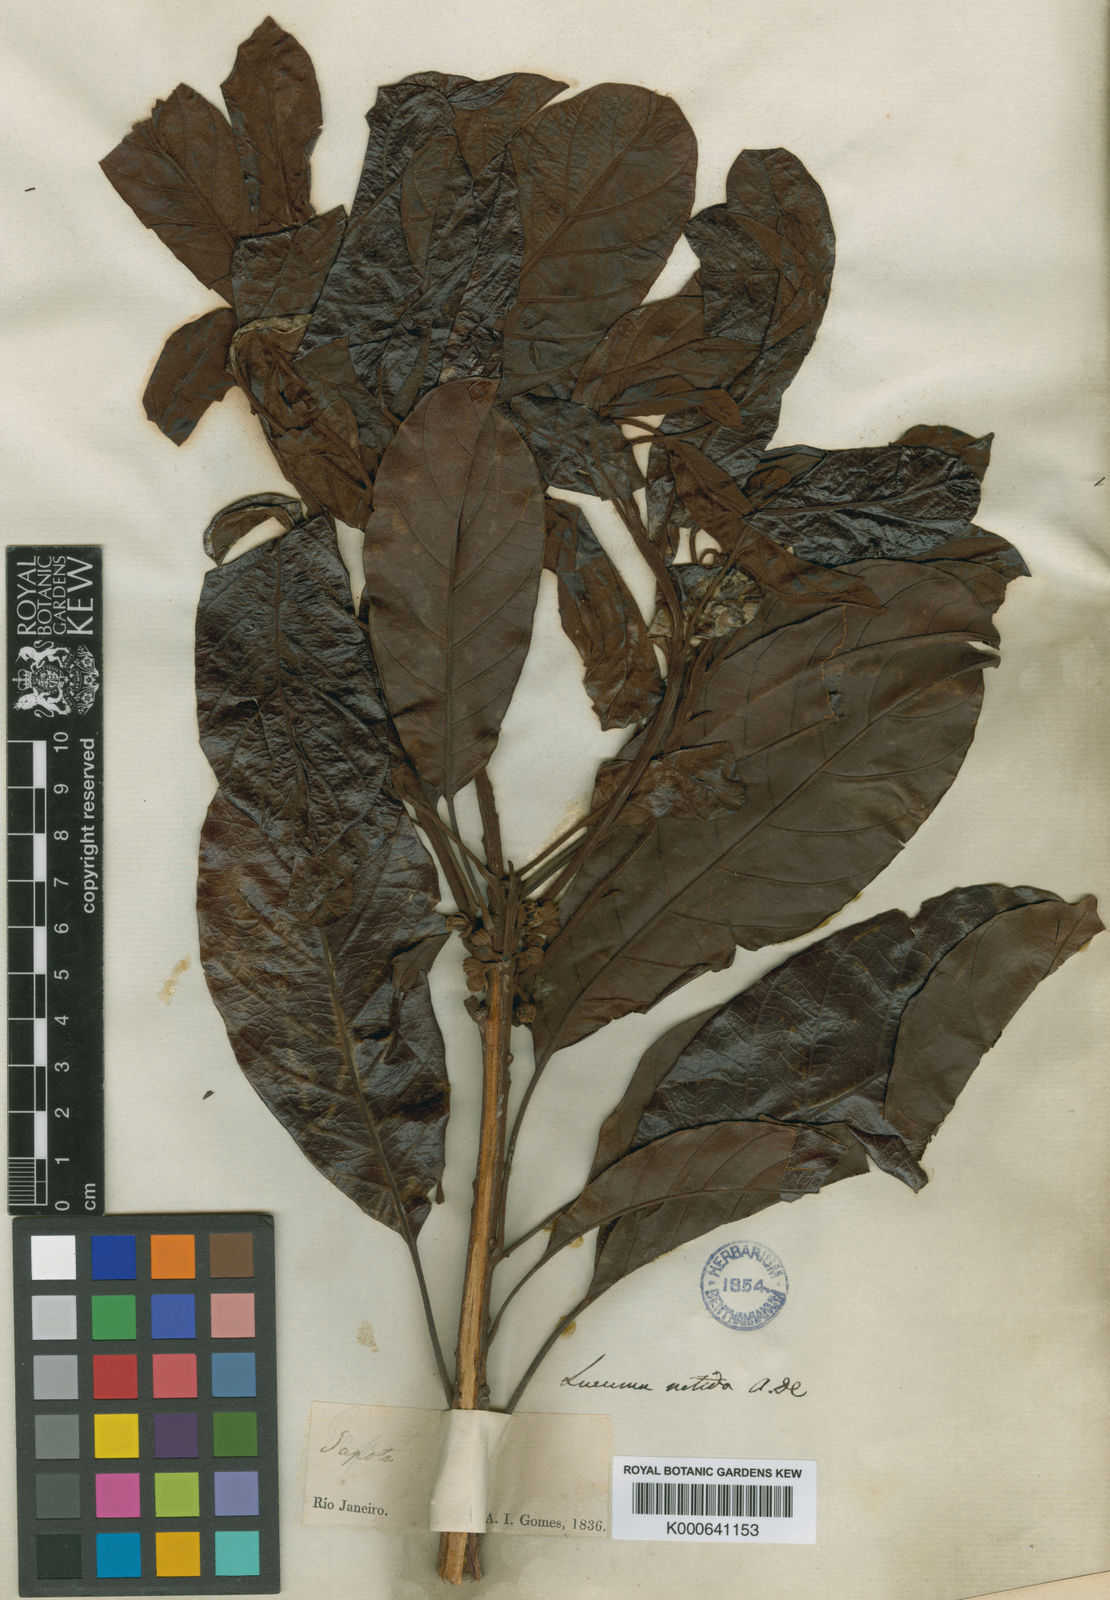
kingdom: Plantae
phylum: Tracheophyta
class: Magnoliopsida
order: Ericales
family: Sapotaceae
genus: Pouteria
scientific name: Pouteria psammophila
